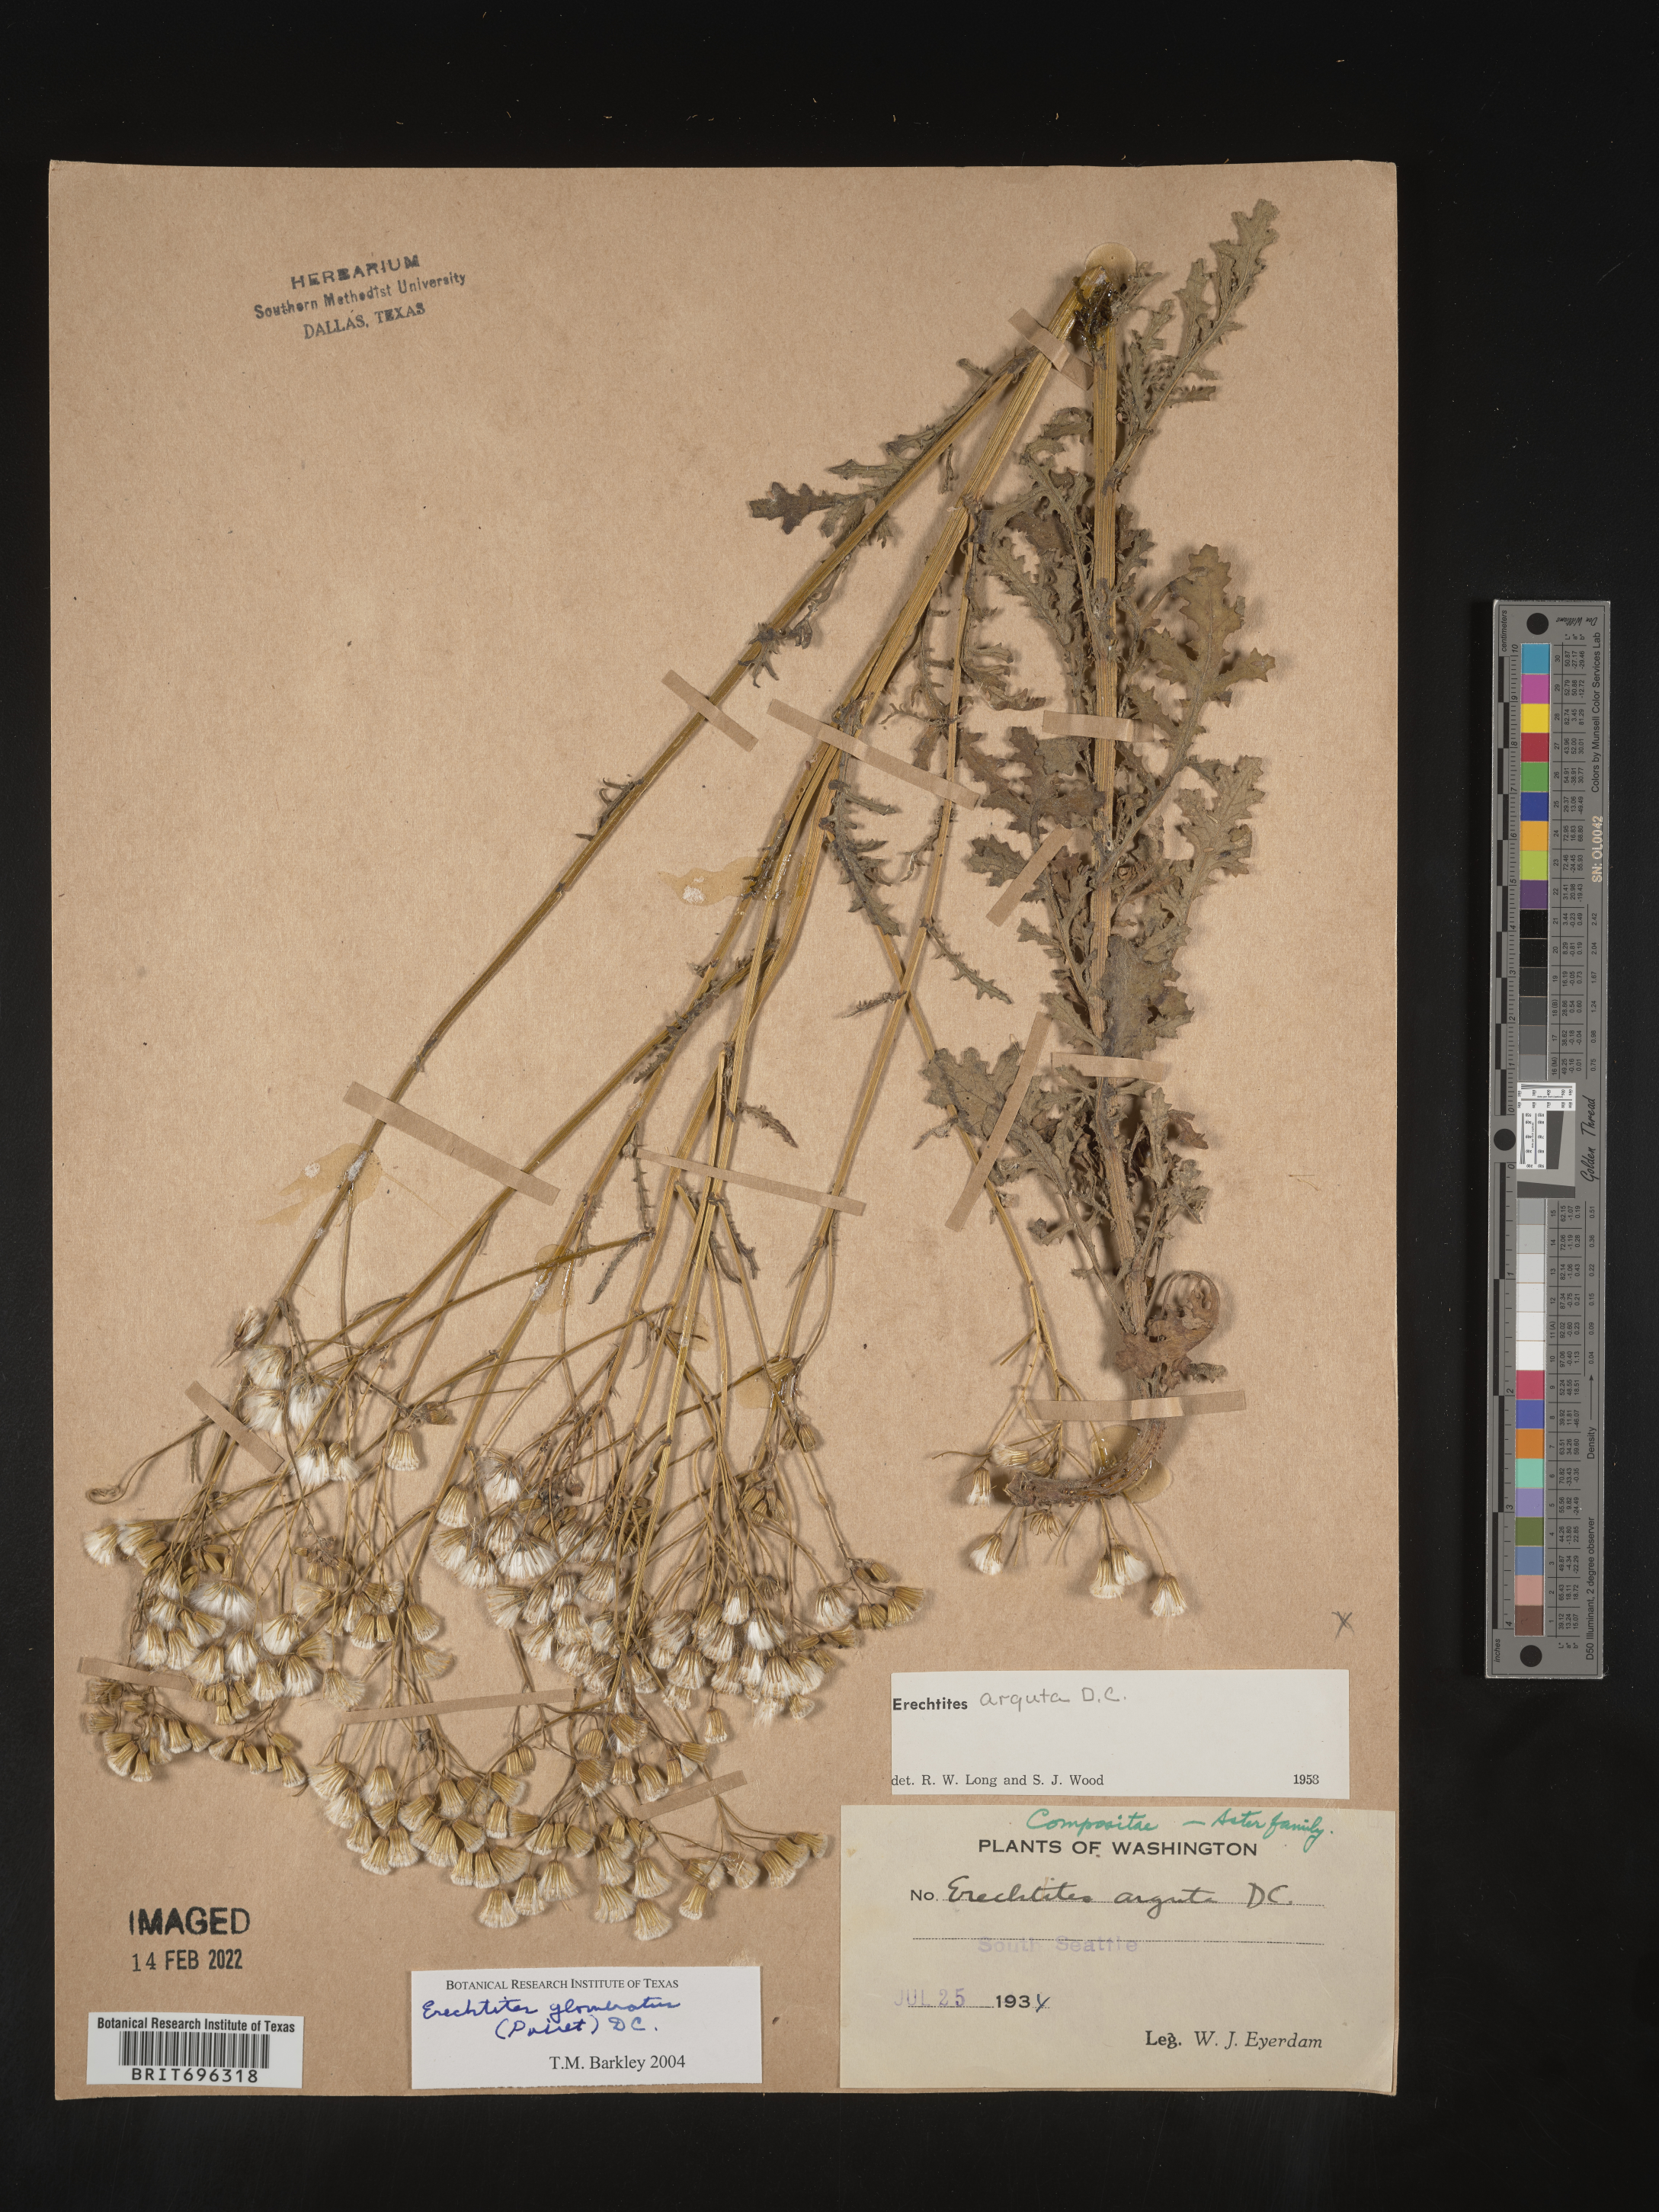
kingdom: Plantae
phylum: Tracheophyta
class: Magnoliopsida
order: Asterales
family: Asteraceae
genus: Senecio
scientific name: Senecio glomeratus
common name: Cutleaf burnweed
